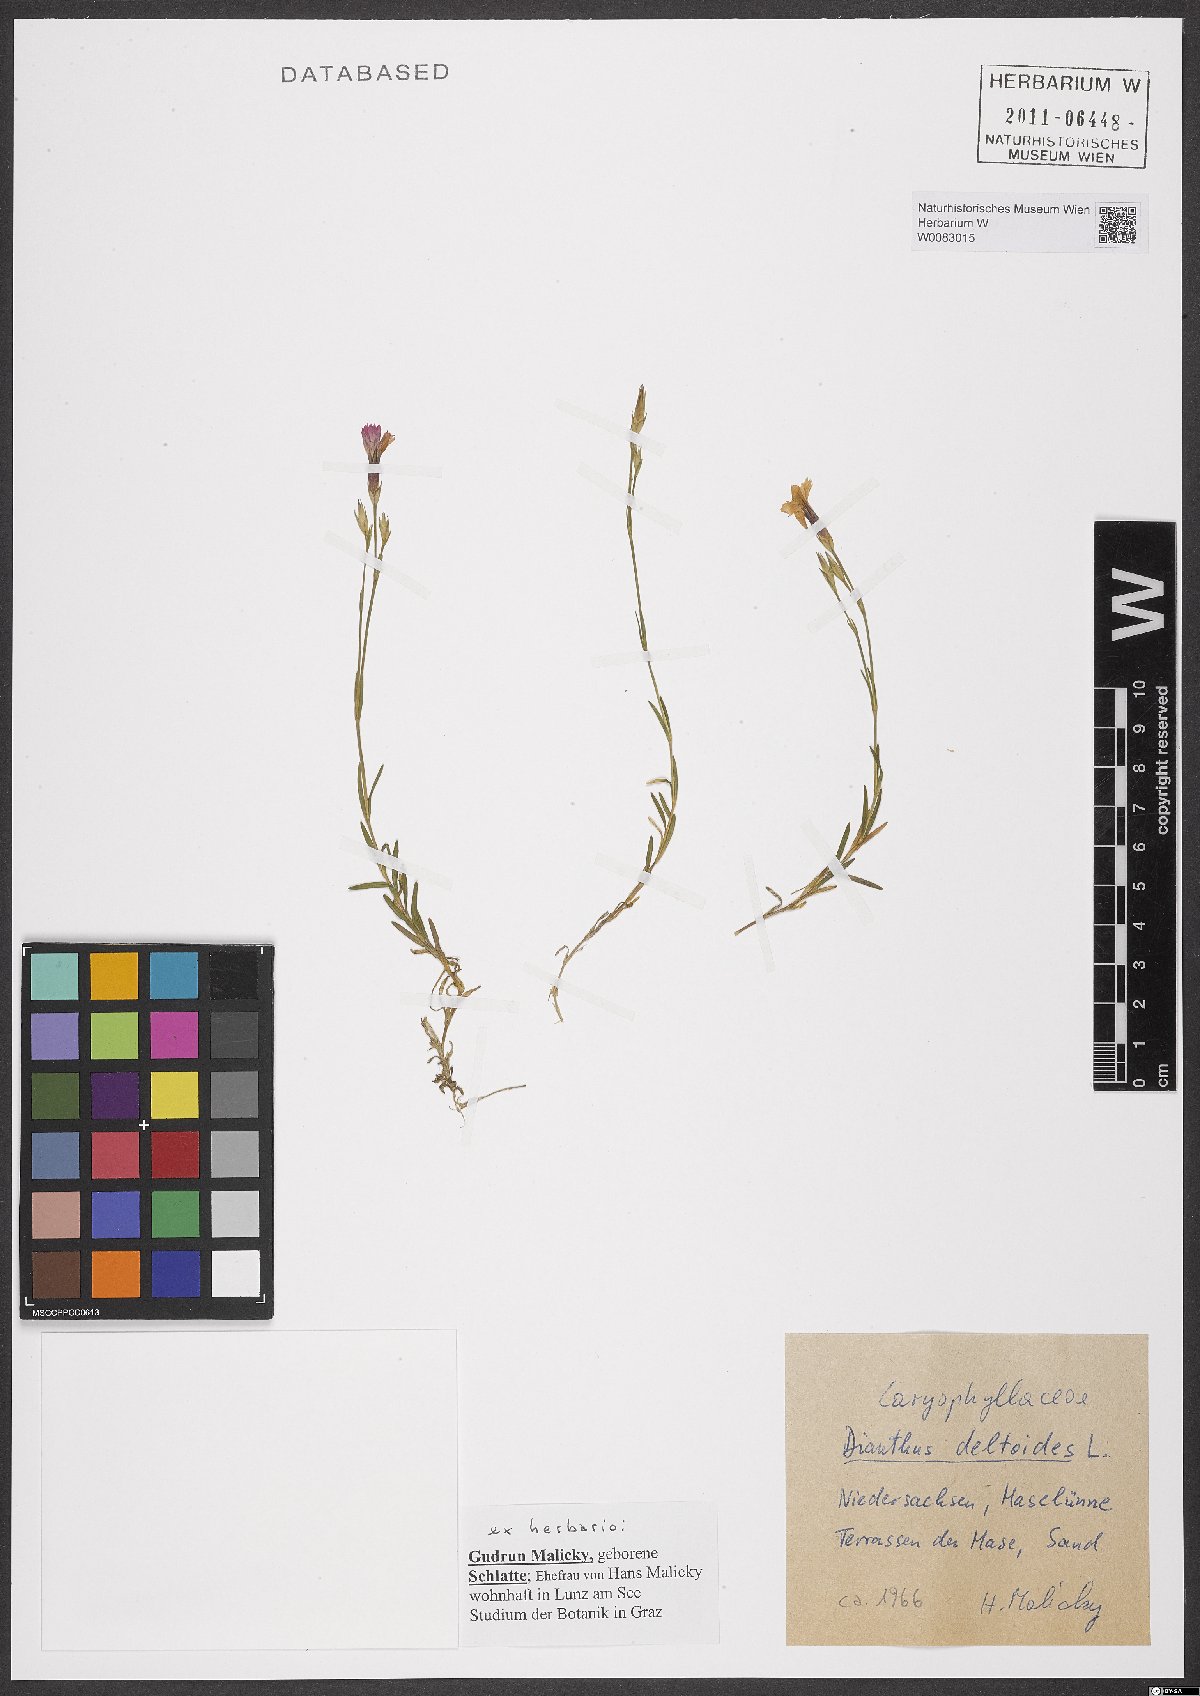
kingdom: Plantae
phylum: Tracheophyta
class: Magnoliopsida
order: Caryophyllales
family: Caryophyllaceae
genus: Dianthus
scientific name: Dianthus deltoides
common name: Maiden pink
